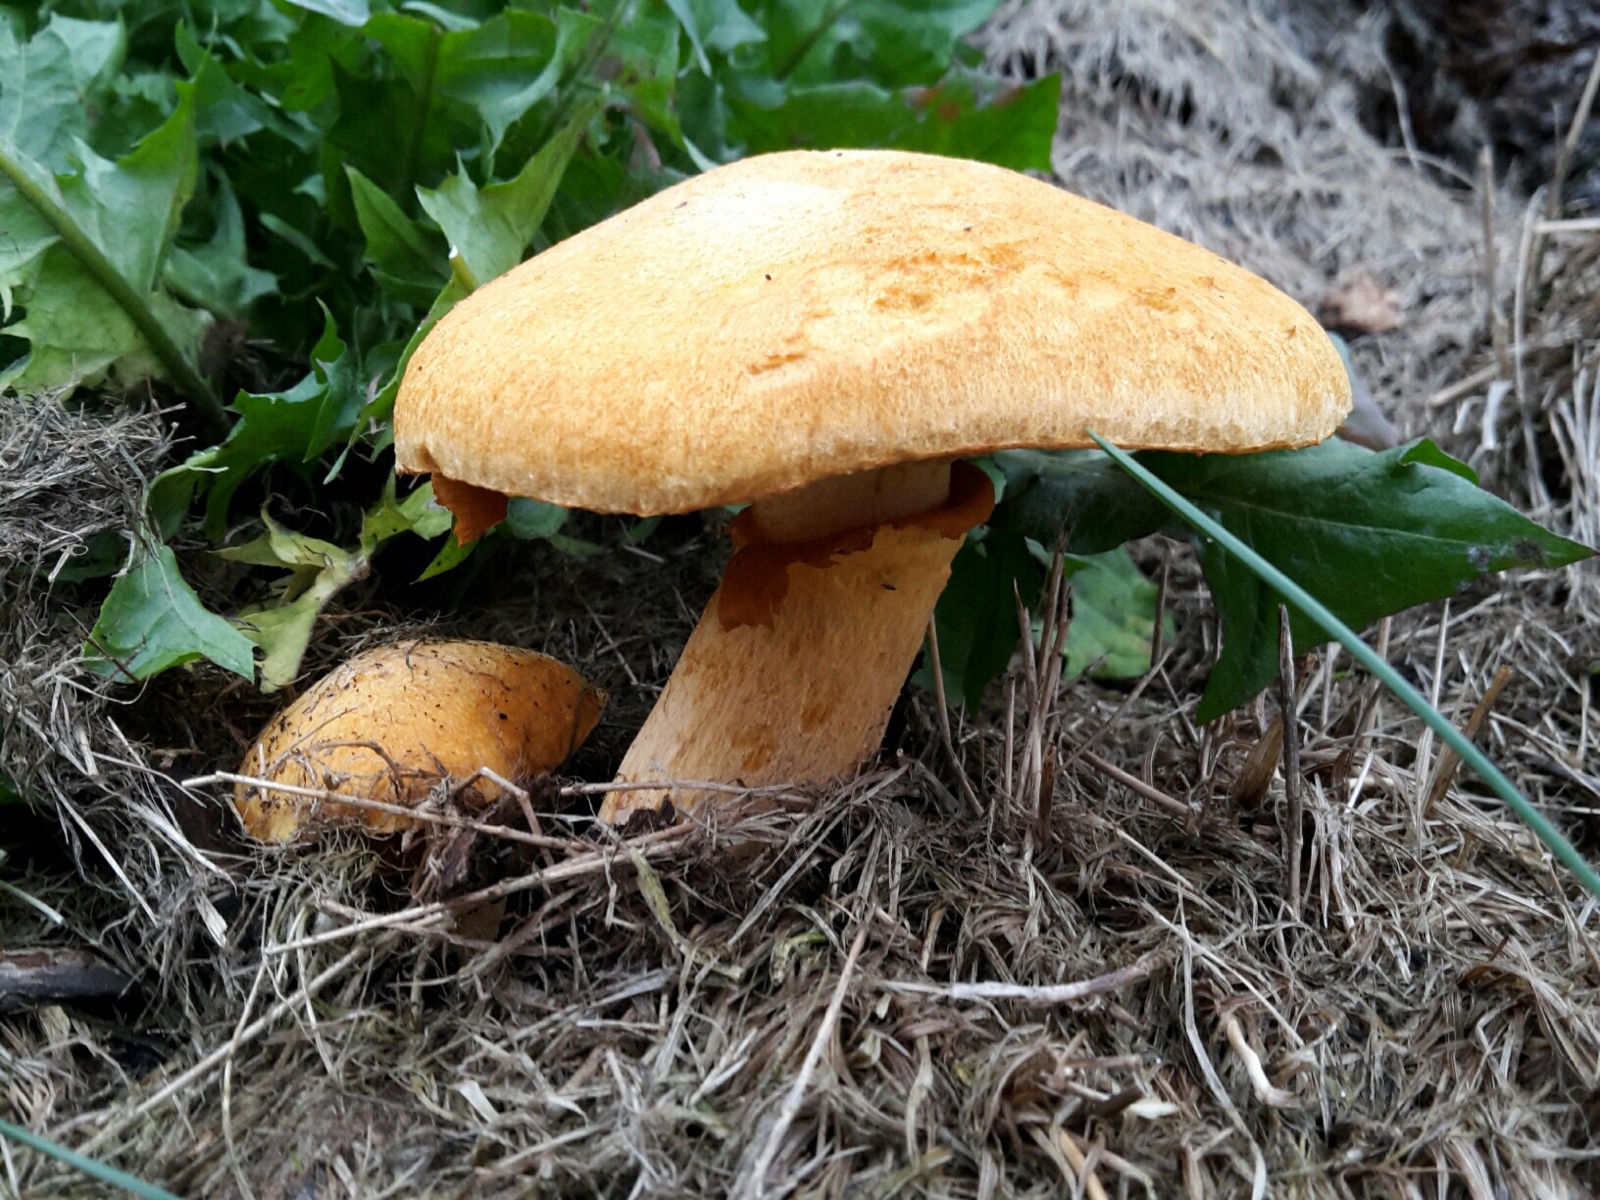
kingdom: Fungi
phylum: Basidiomycota
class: Agaricomycetes
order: Agaricales
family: Hymenogastraceae
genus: Gymnopilus
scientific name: Gymnopilus spectabilis
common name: fibret flammehat
